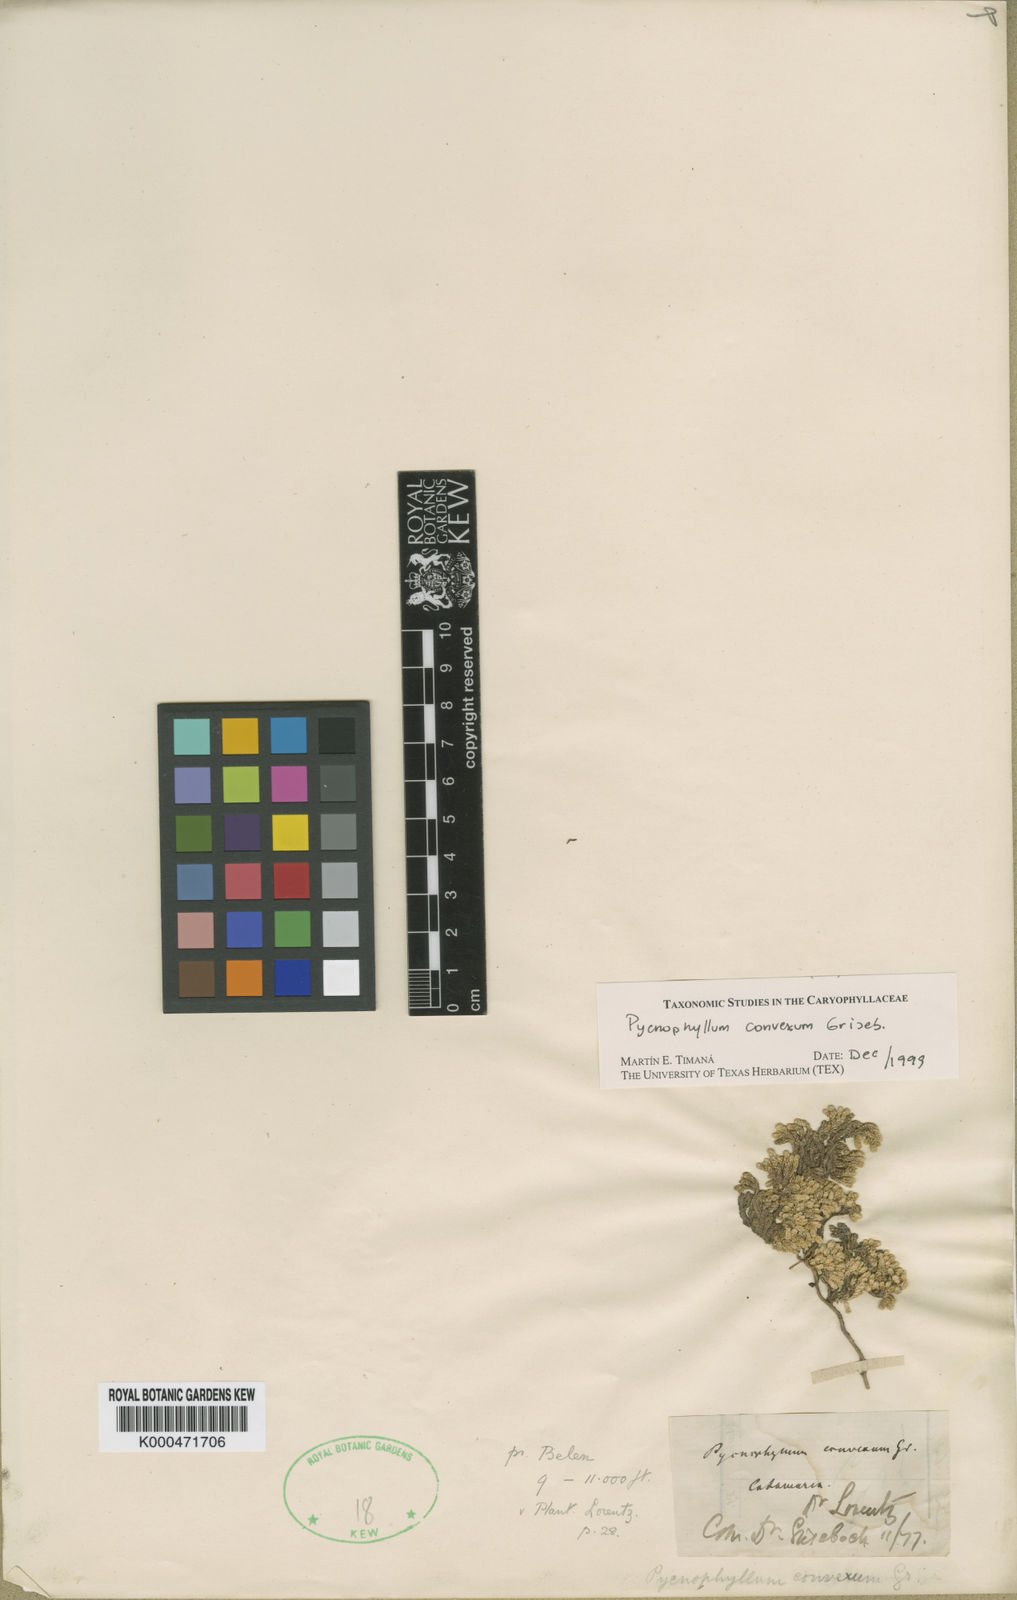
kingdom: Plantae
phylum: Tracheophyta
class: Magnoliopsida
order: Caryophyllales
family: Caryophyllaceae
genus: Pycnophyllum
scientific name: Pycnophyllum convexum
